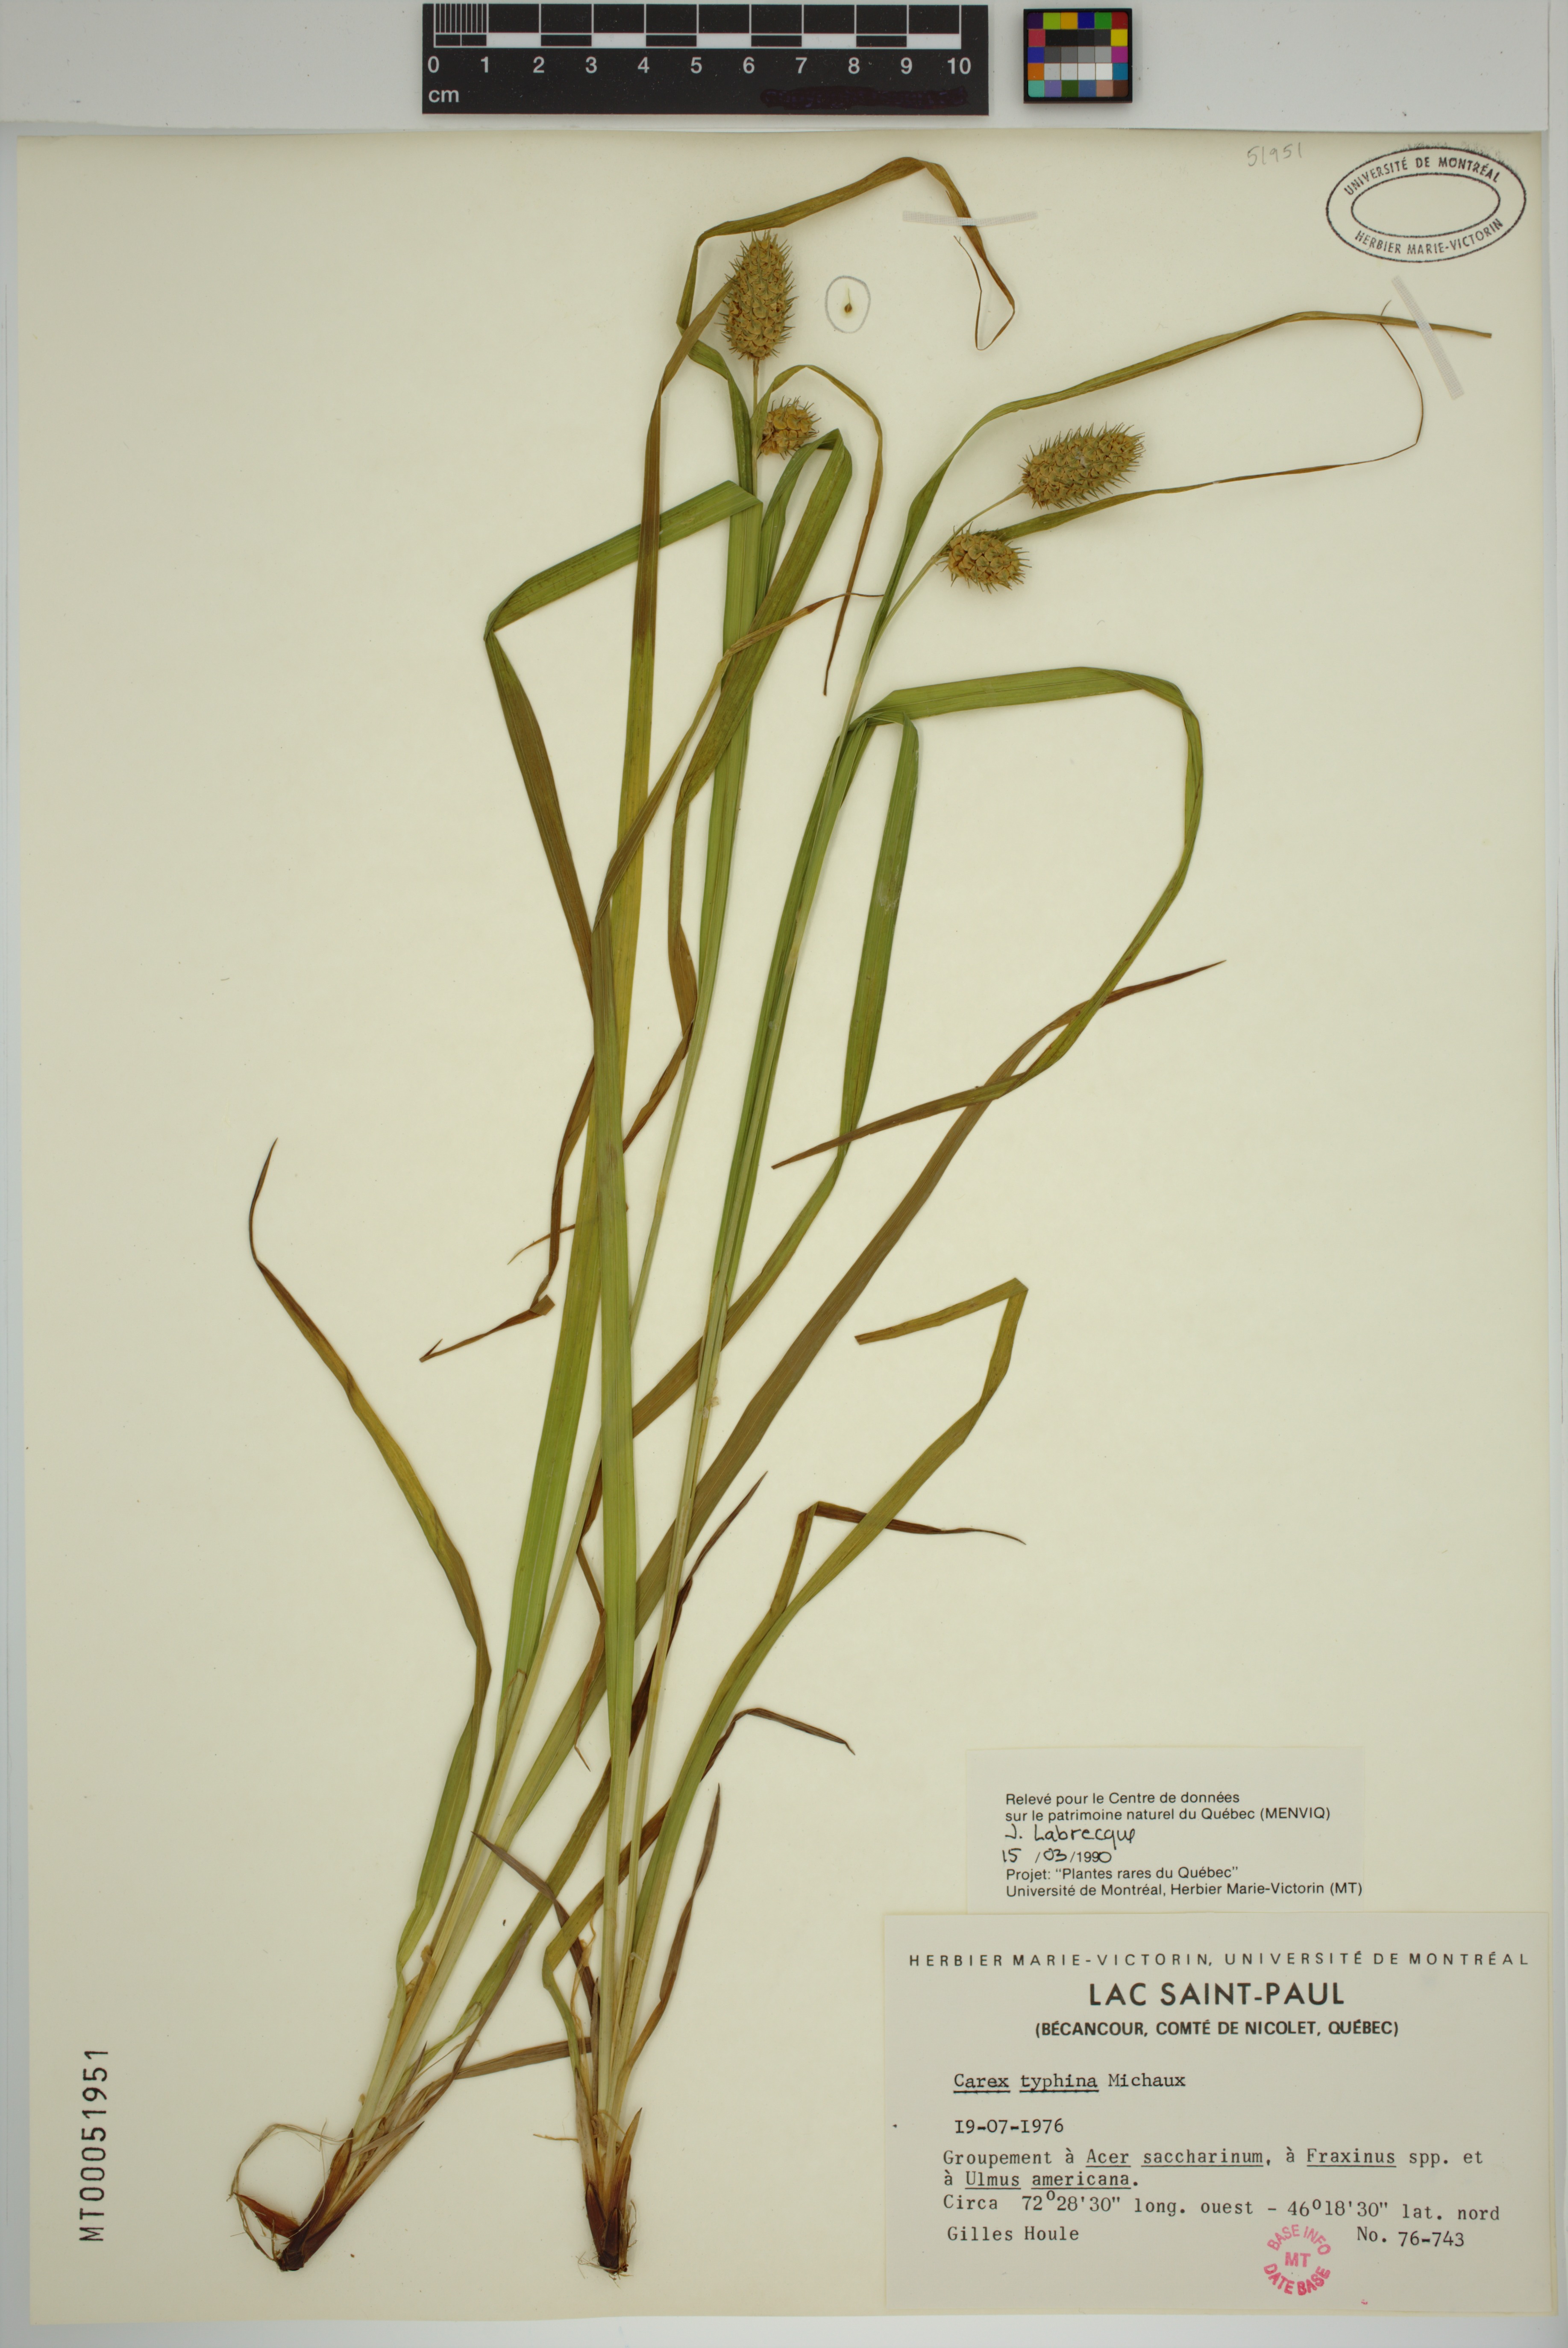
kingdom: Plantae
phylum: Tracheophyta
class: Liliopsida
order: Poales
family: Cyperaceae
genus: Carex
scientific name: Carex typhina
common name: Cattail sedge
